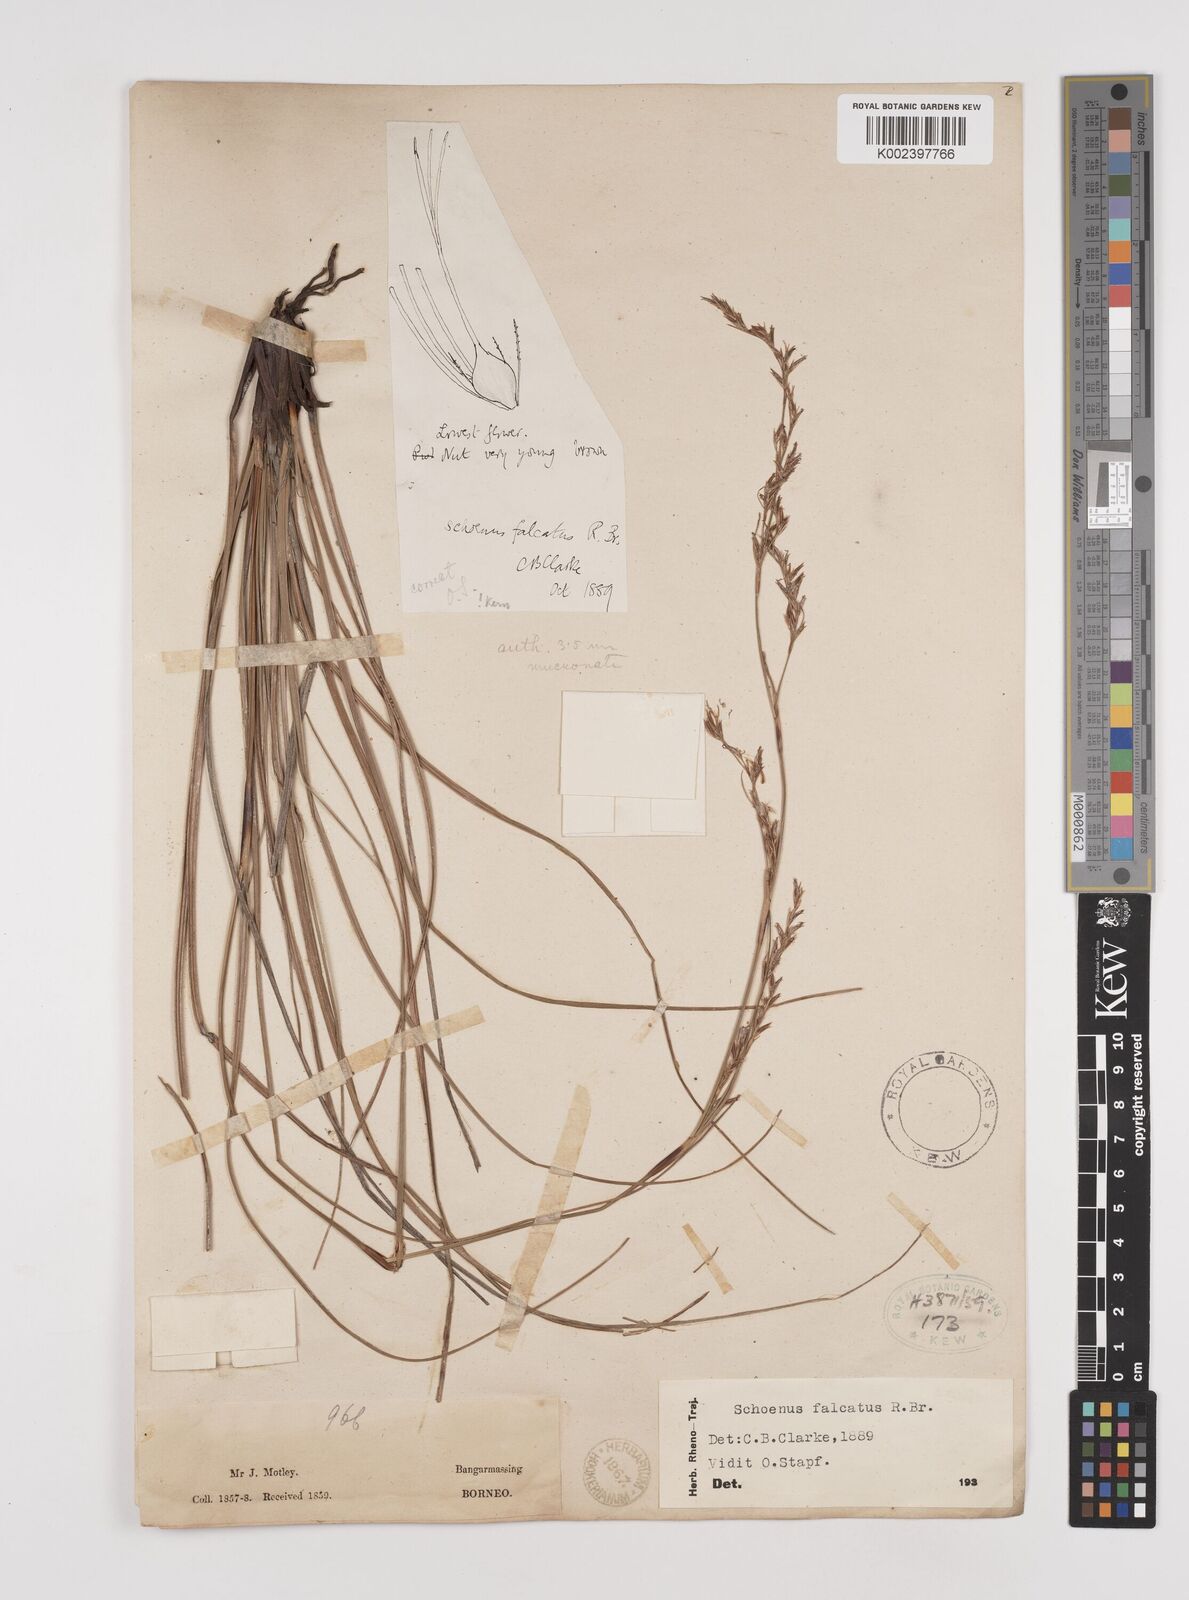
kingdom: Plantae
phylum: Tracheophyta
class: Liliopsida
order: Poales
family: Cyperaceae
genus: Schoenus
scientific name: Schoenus falcatus
